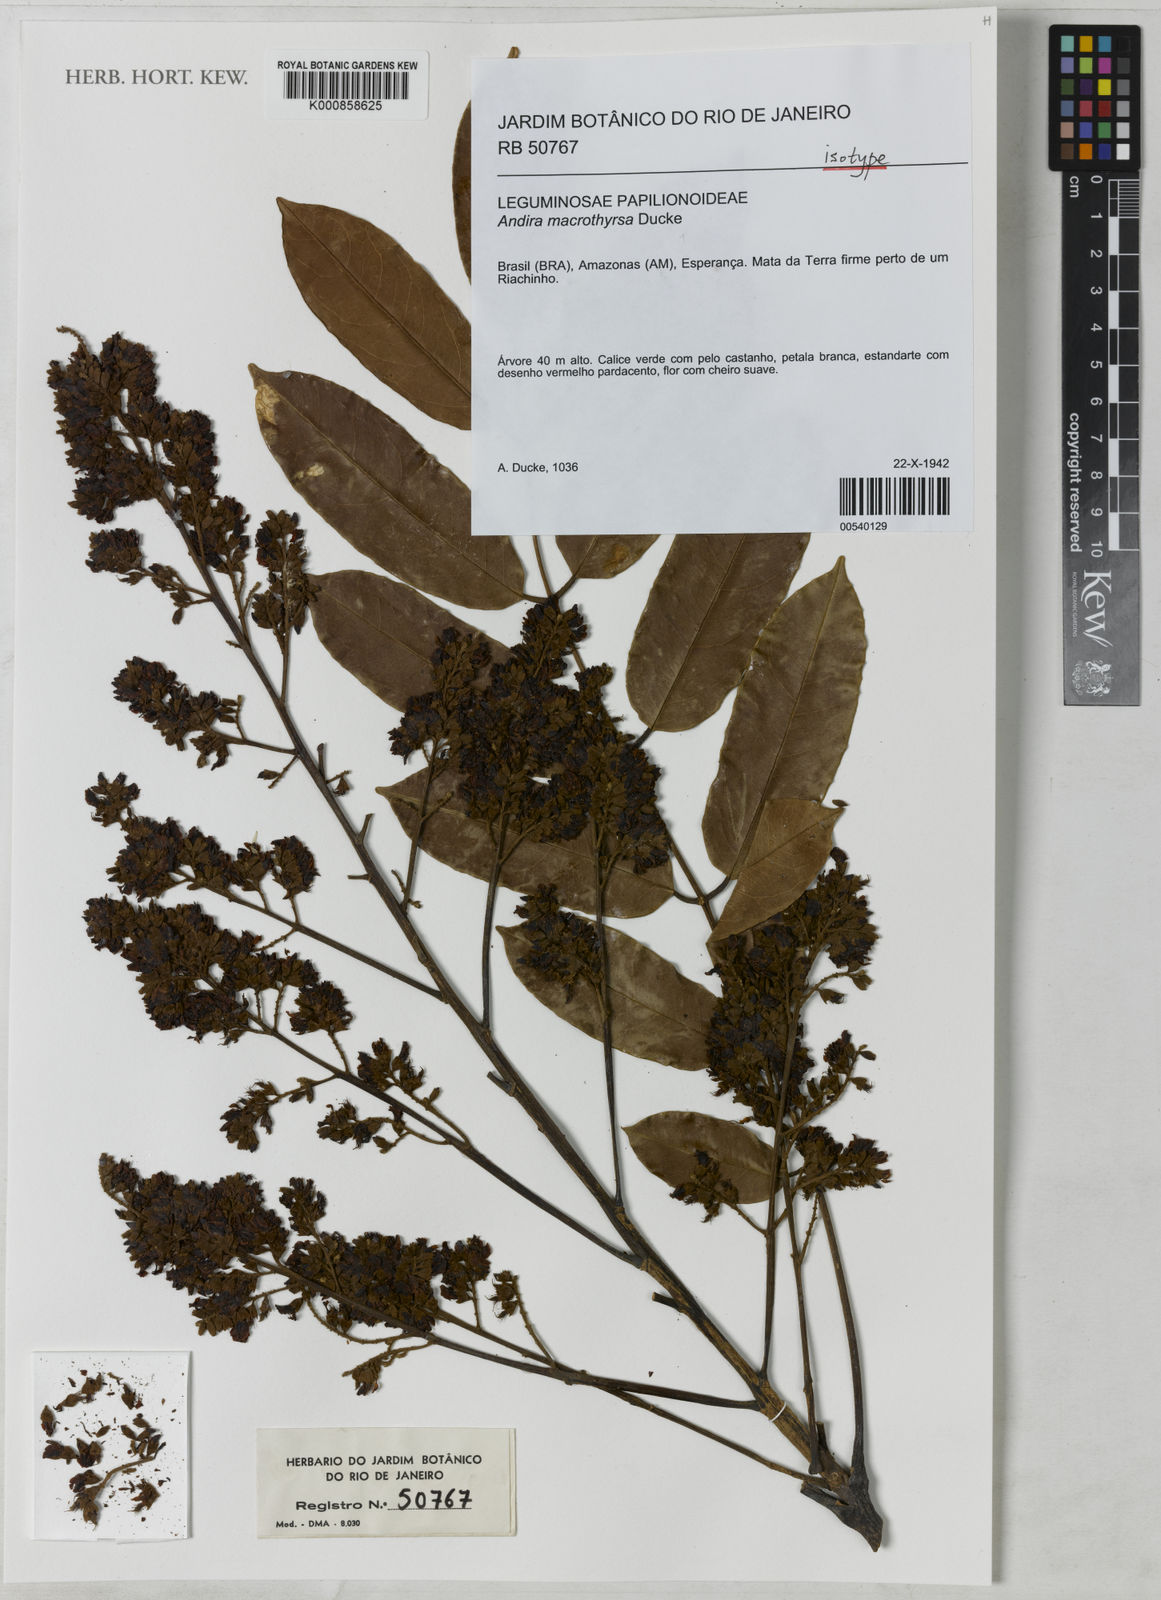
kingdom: Plantae
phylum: Tracheophyta
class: Magnoliopsida
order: Fabales
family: Fabaceae
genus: Andira
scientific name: Andira macrothyrsa
